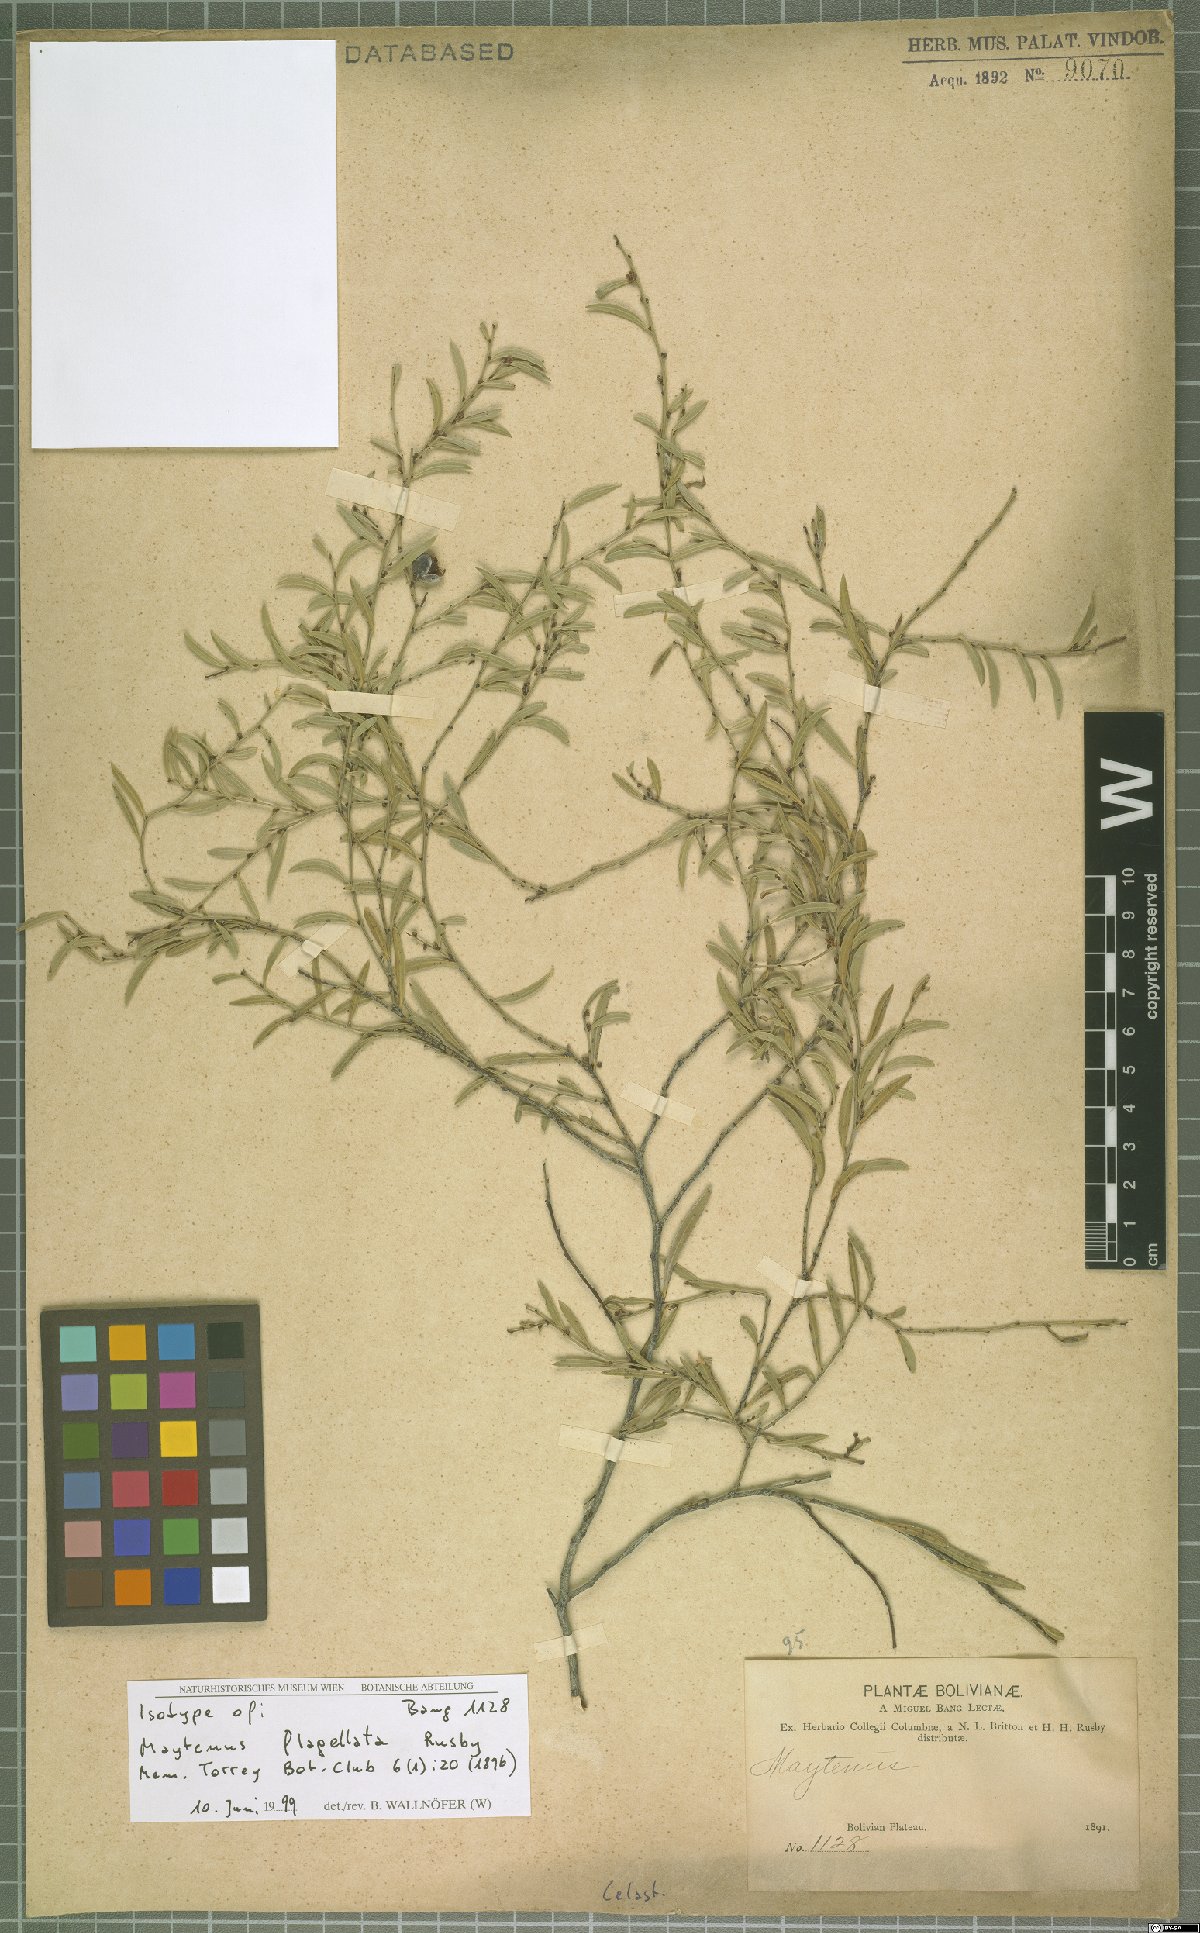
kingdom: Plantae
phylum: Tracheophyta
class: Magnoliopsida
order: Celastrales
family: Celastraceae
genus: Monteverdia
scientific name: Monteverdia flagellata
